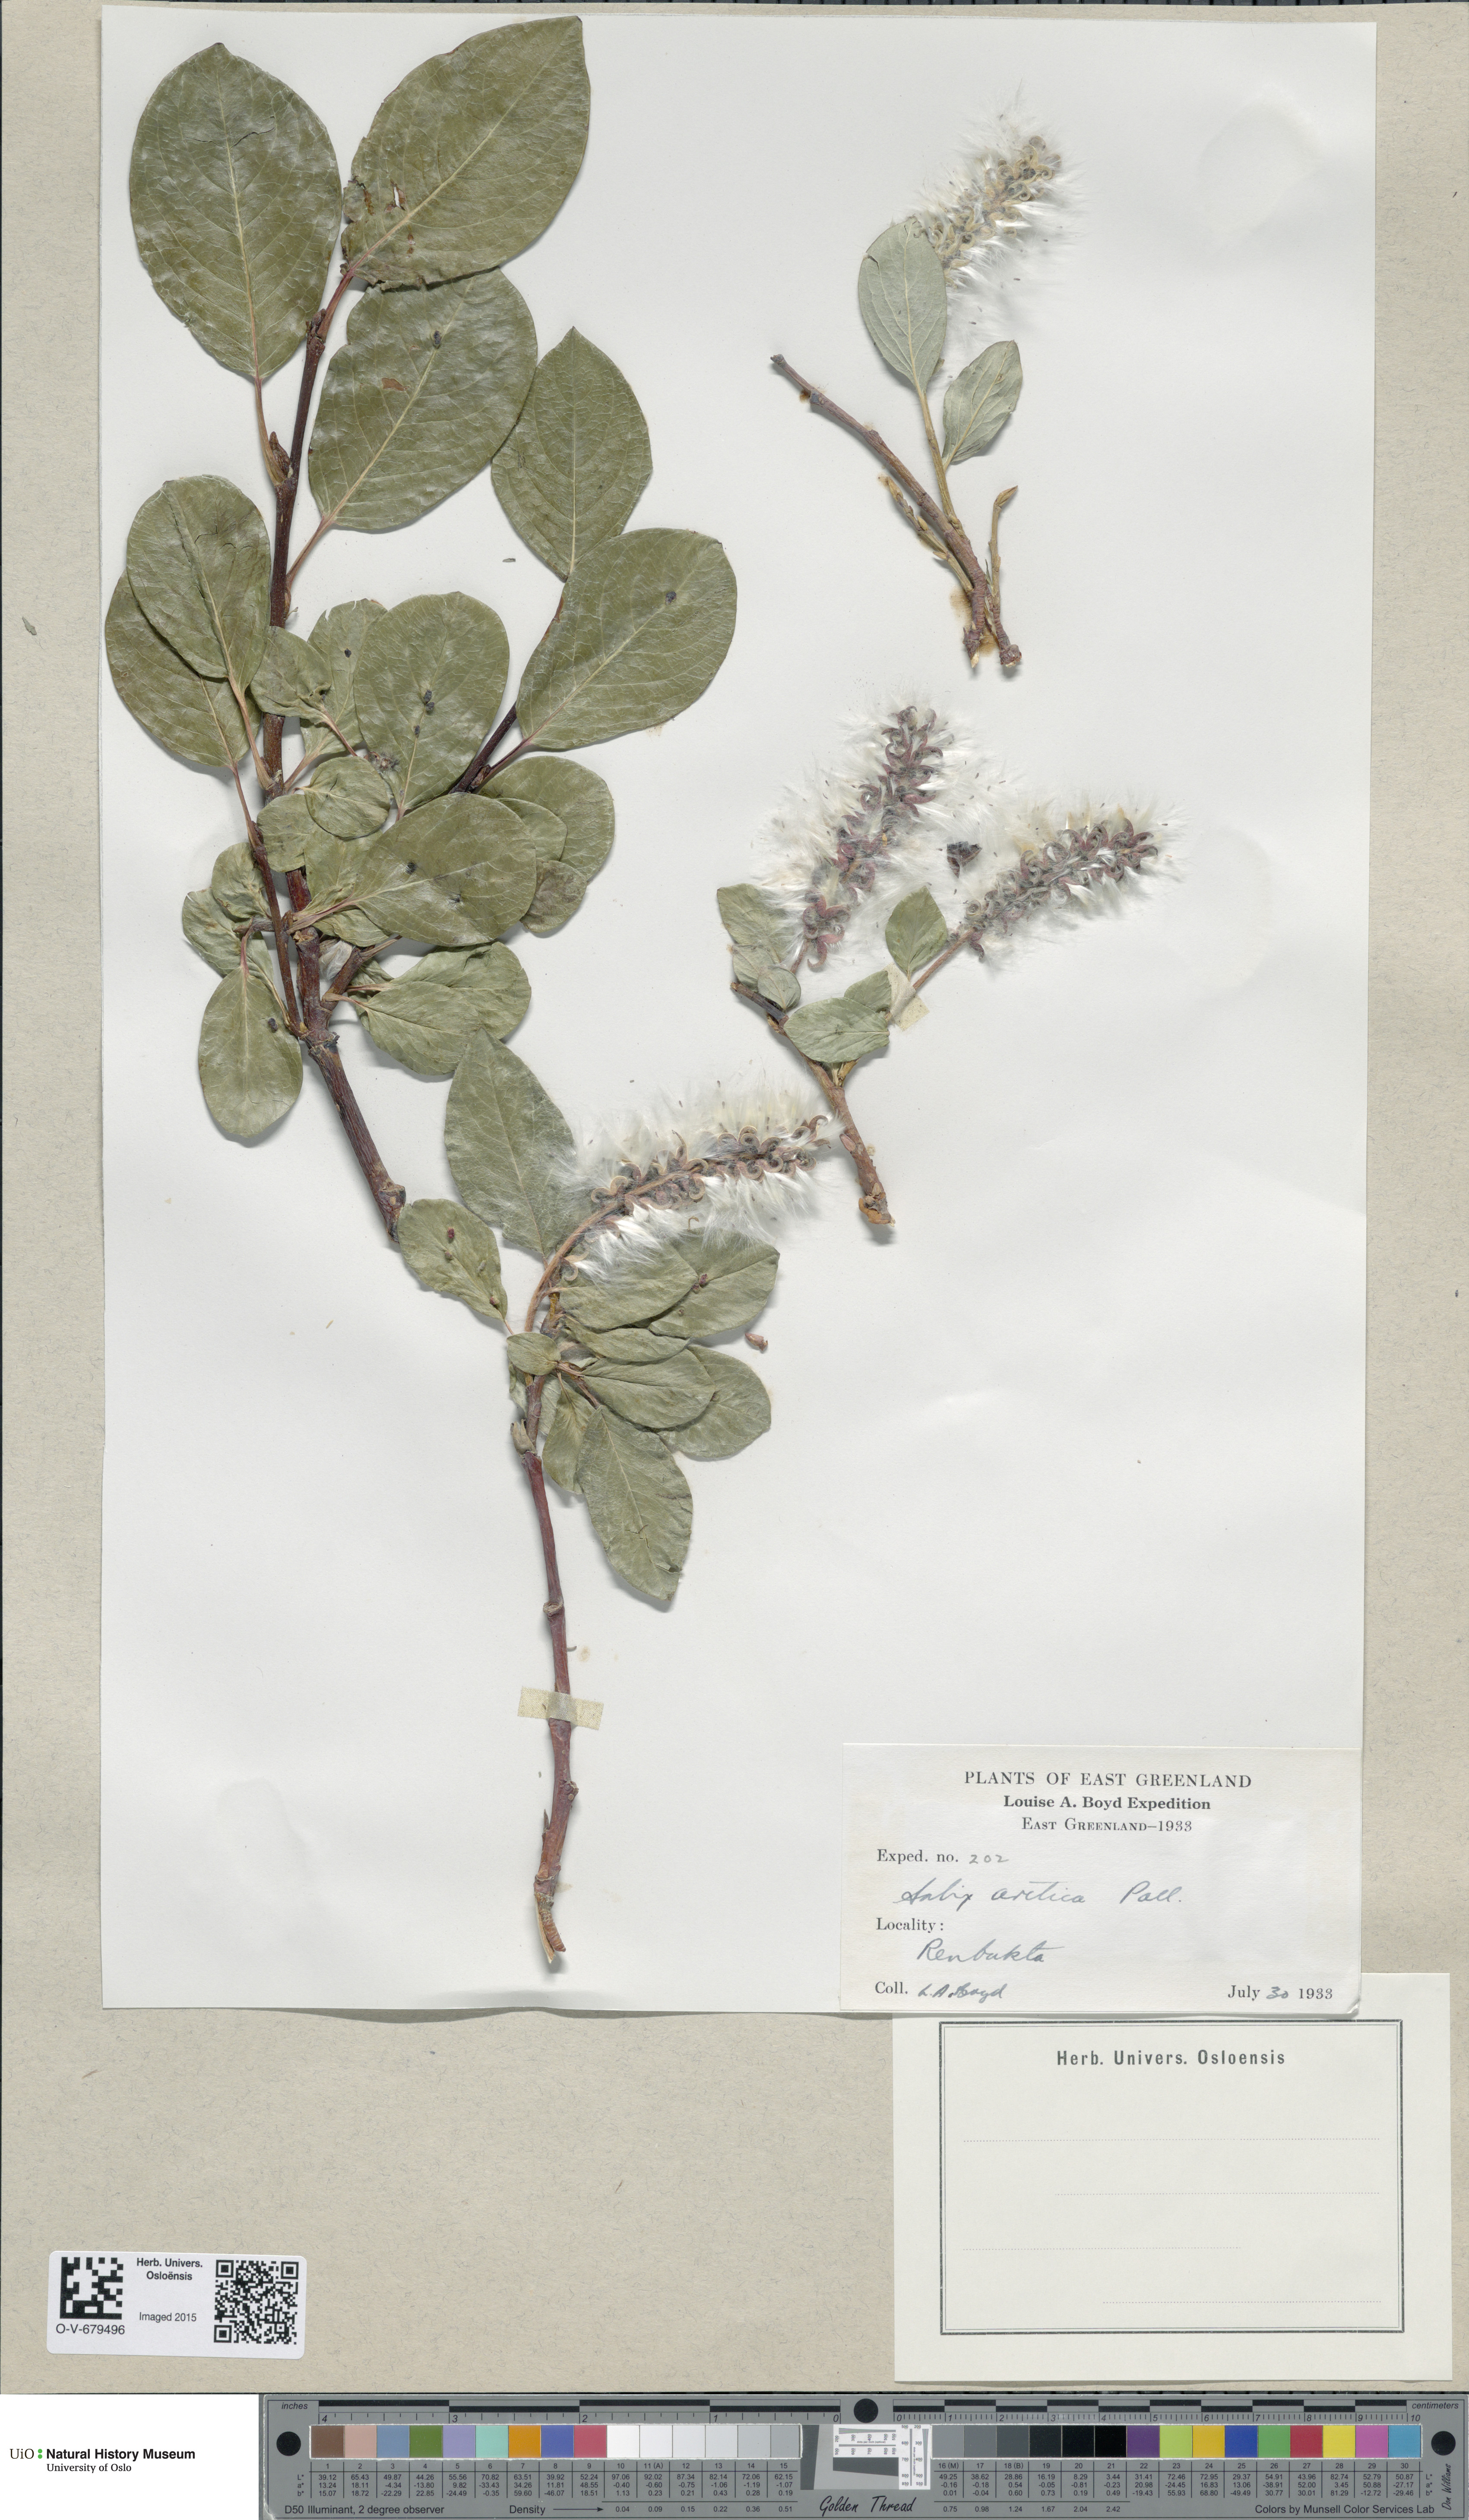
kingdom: Plantae
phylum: Tracheophyta
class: Magnoliopsida
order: Malpighiales
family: Salicaceae
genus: Salix
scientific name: Salix arctica
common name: Arctic willow
